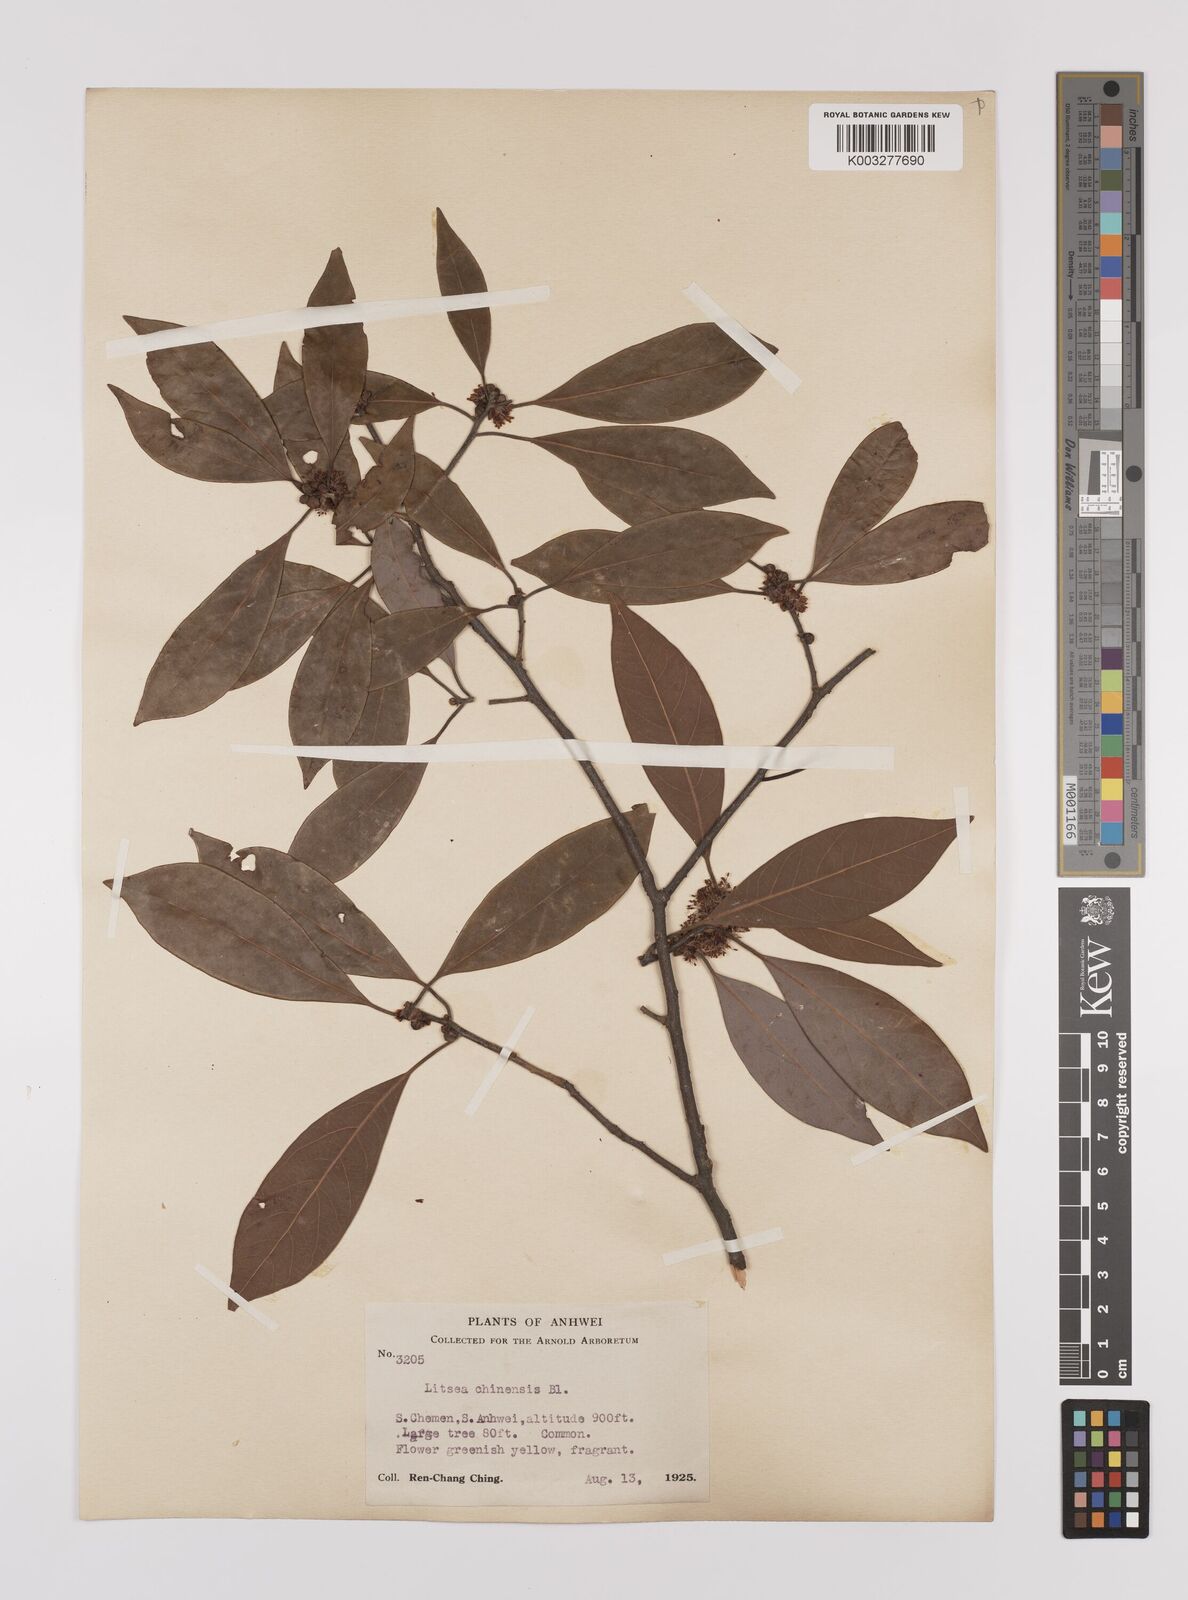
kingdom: Plantae
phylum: Tracheophyta
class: Magnoliopsida
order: Laurales
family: Lauraceae
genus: Litsea
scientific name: Litsea rotundifolia
